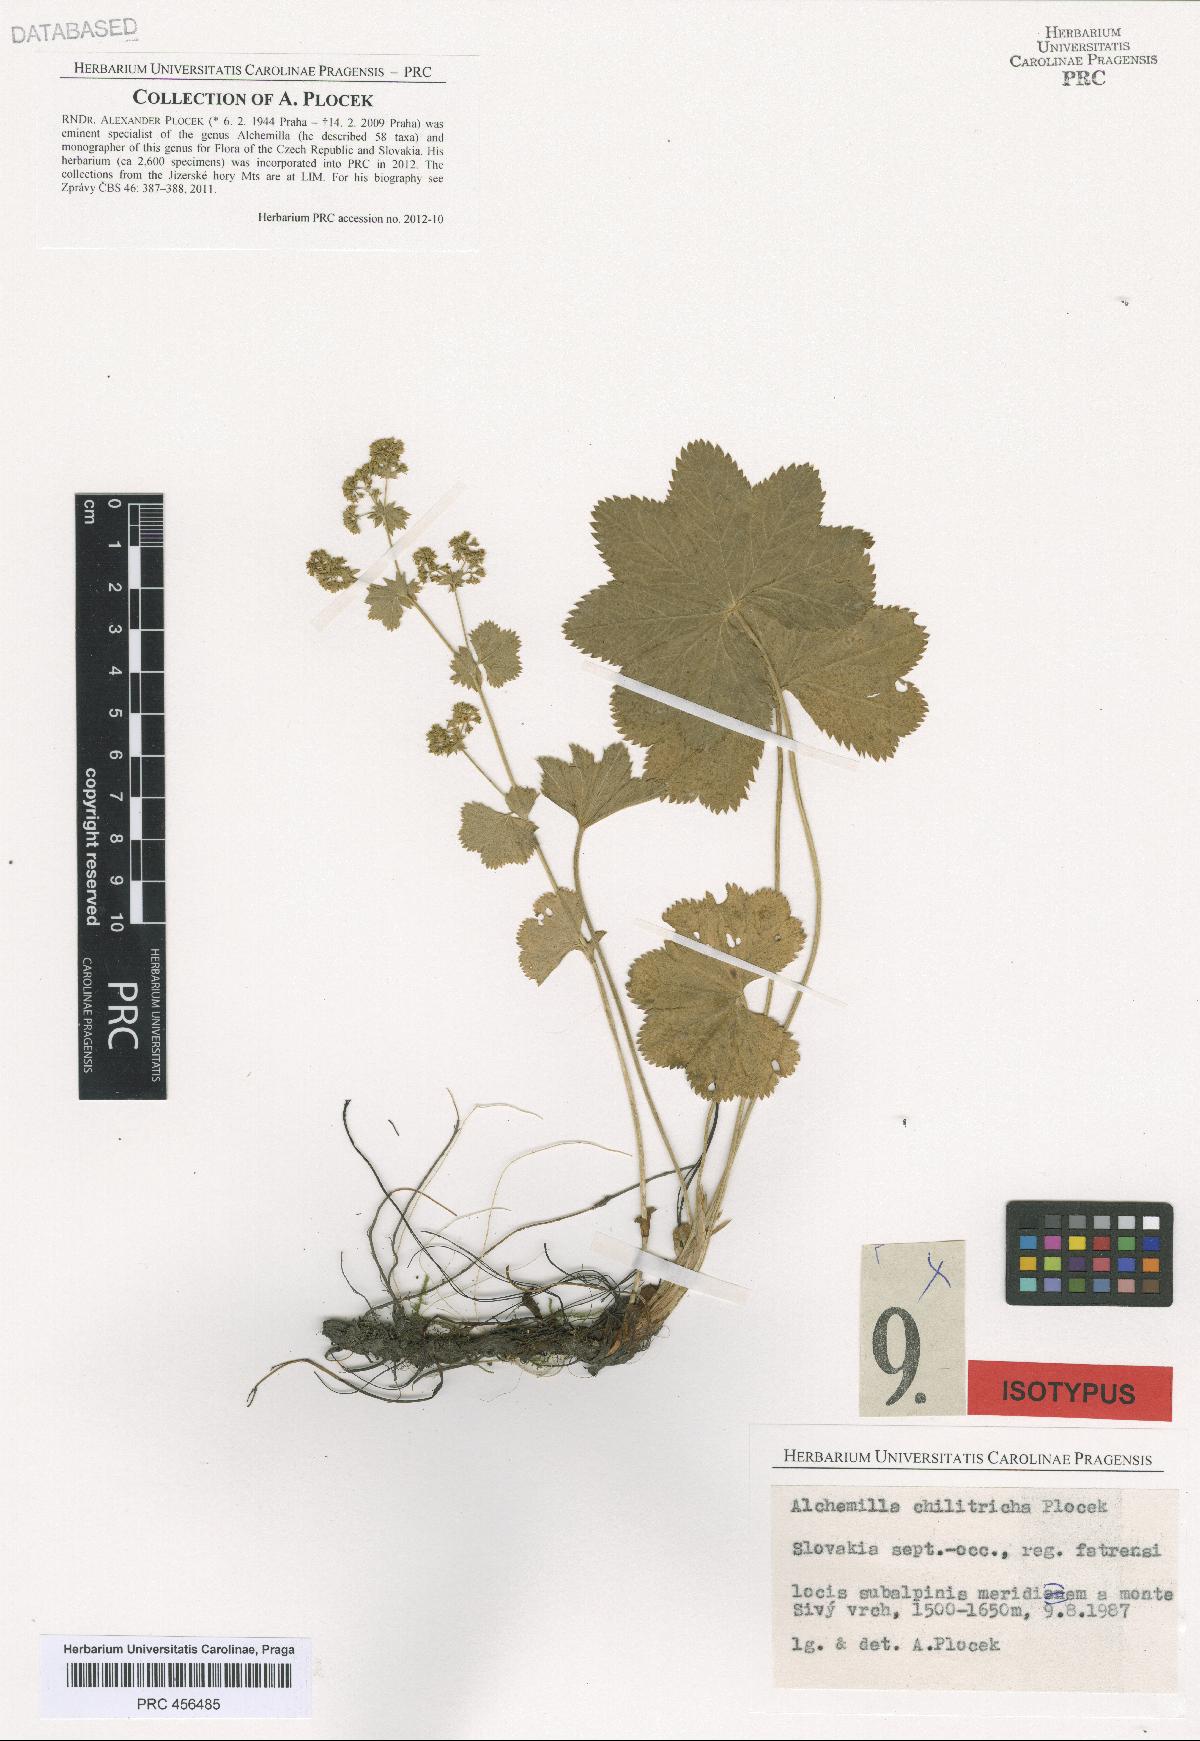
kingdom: Plantae
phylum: Tracheophyta
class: Magnoliopsida
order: Rosales
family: Rosaceae
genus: Alchemilla
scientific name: Alchemilla chilitricha
